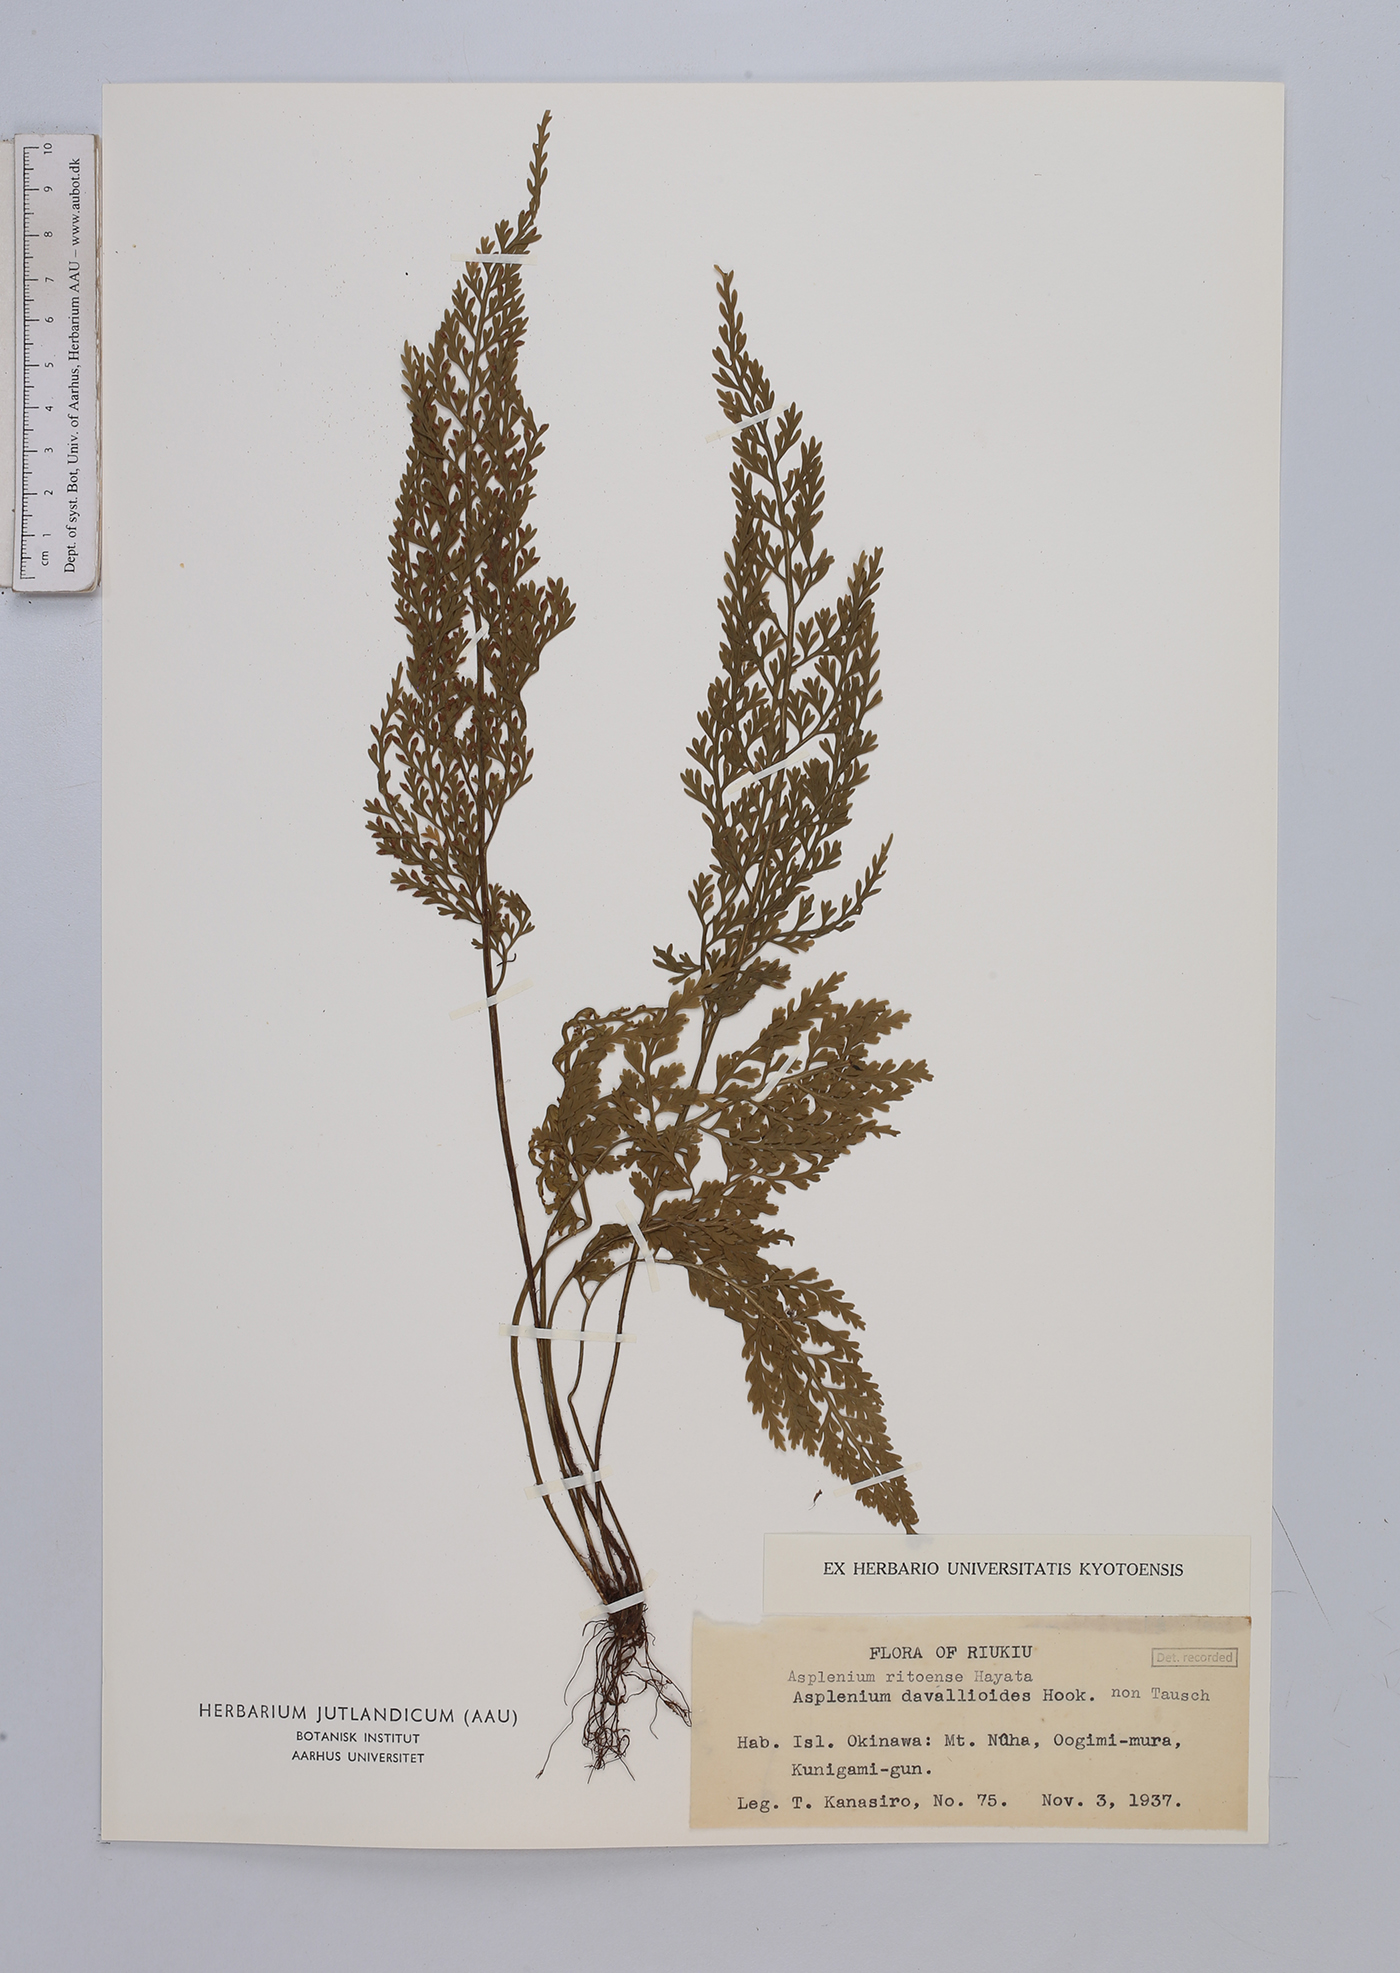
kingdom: Plantae
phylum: Tracheophyta
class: Polypodiopsida
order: Polypodiales
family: Aspleniaceae
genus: Asplenium
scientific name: Asplenium ritoense
